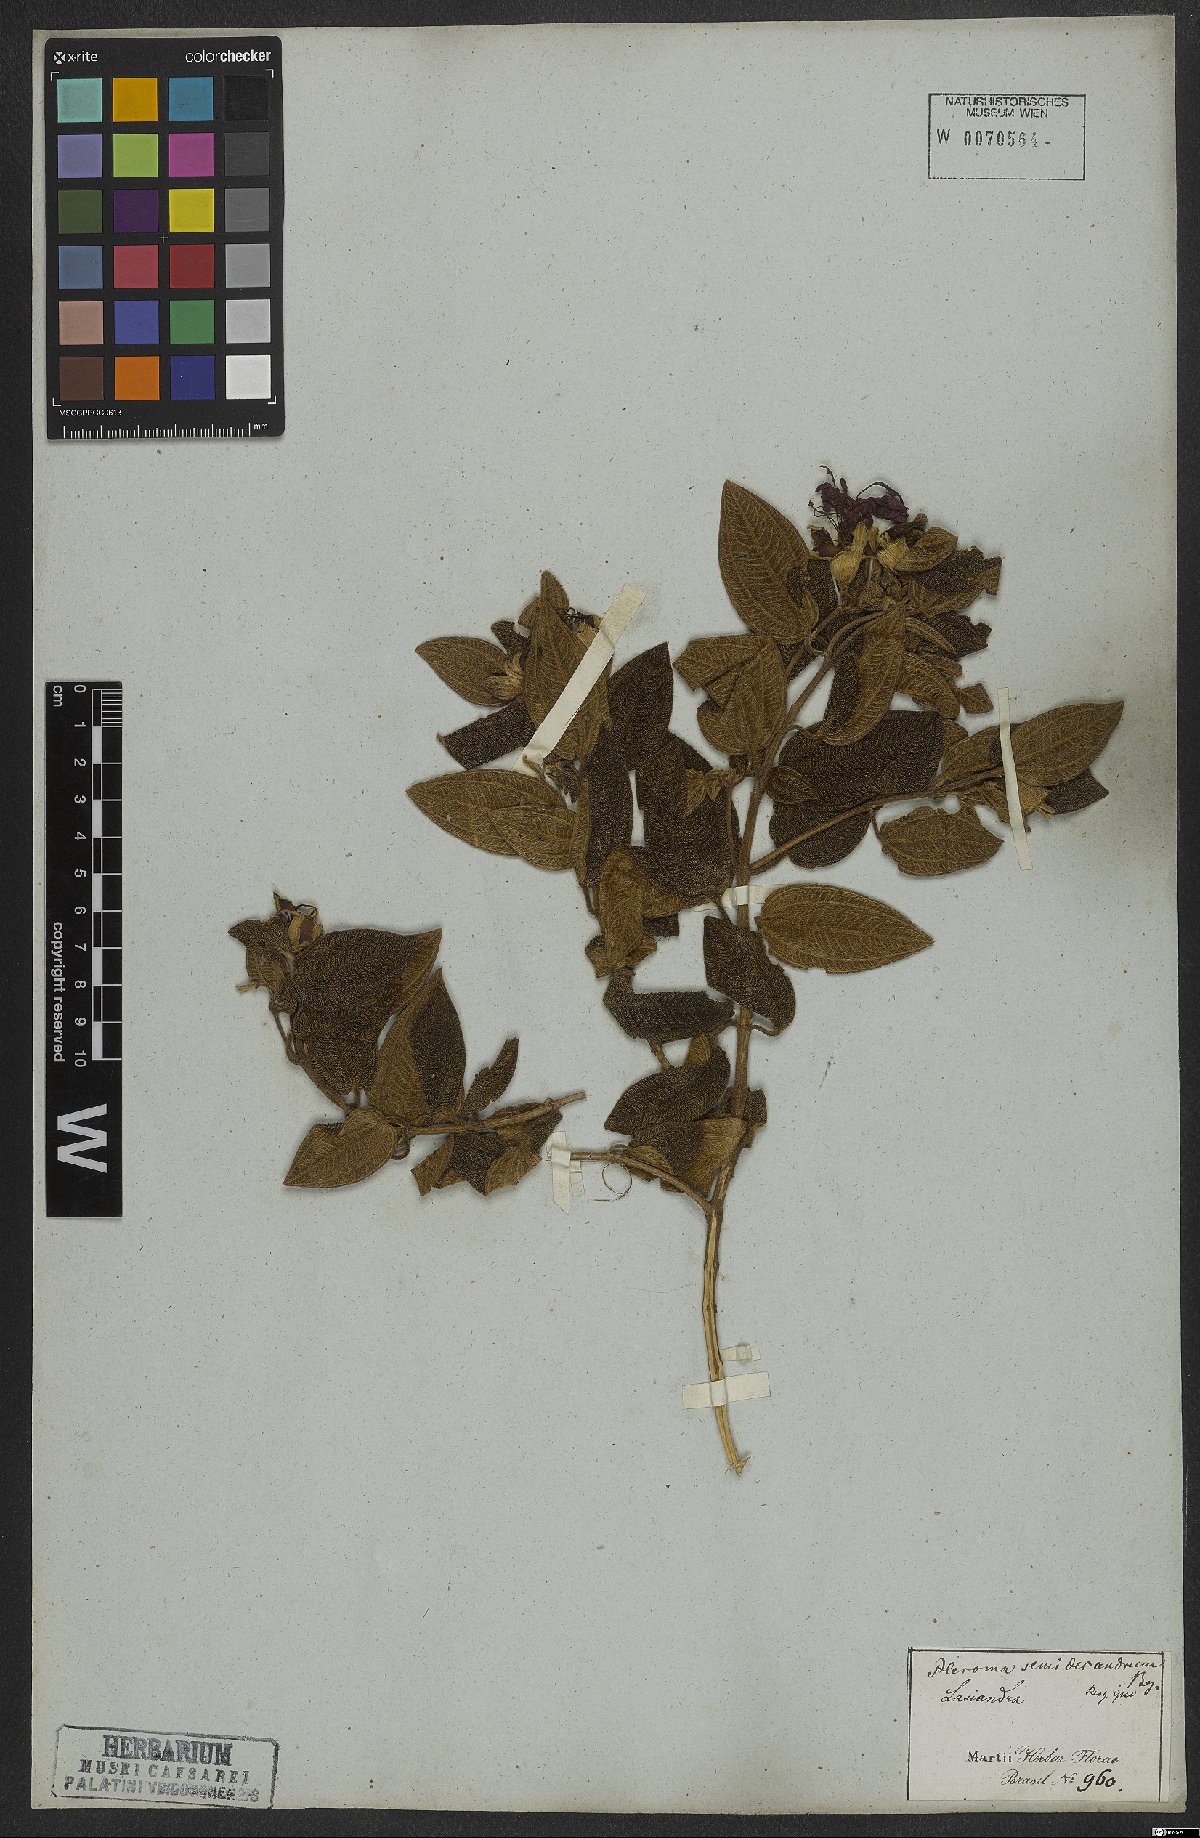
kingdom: Plantae
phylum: Tracheophyta
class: Magnoliopsida
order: Myrtales
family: Melastomataceae
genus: Pleroma
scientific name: Pleroma semidecandrum
